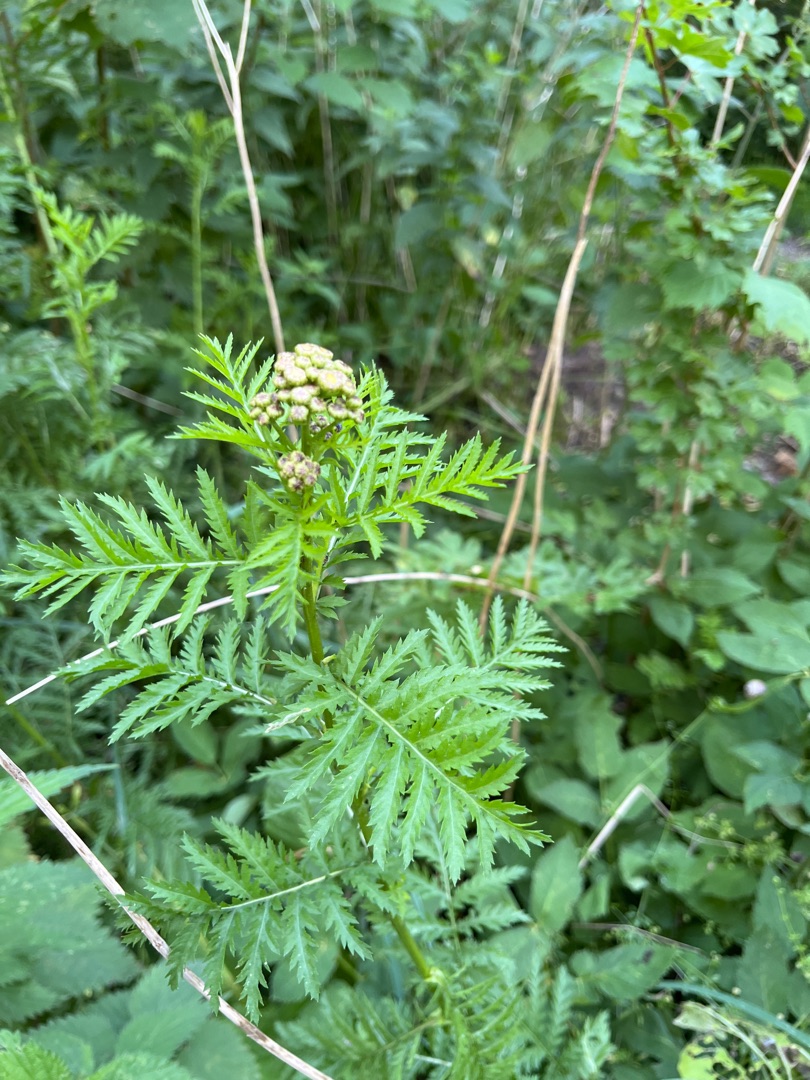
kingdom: Plantae
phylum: Tracheophyta
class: Magnoliopsida
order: Asterales
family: Asteraceae
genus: Tanacetum
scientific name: Tanacetum vulgare
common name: Rejnfan
